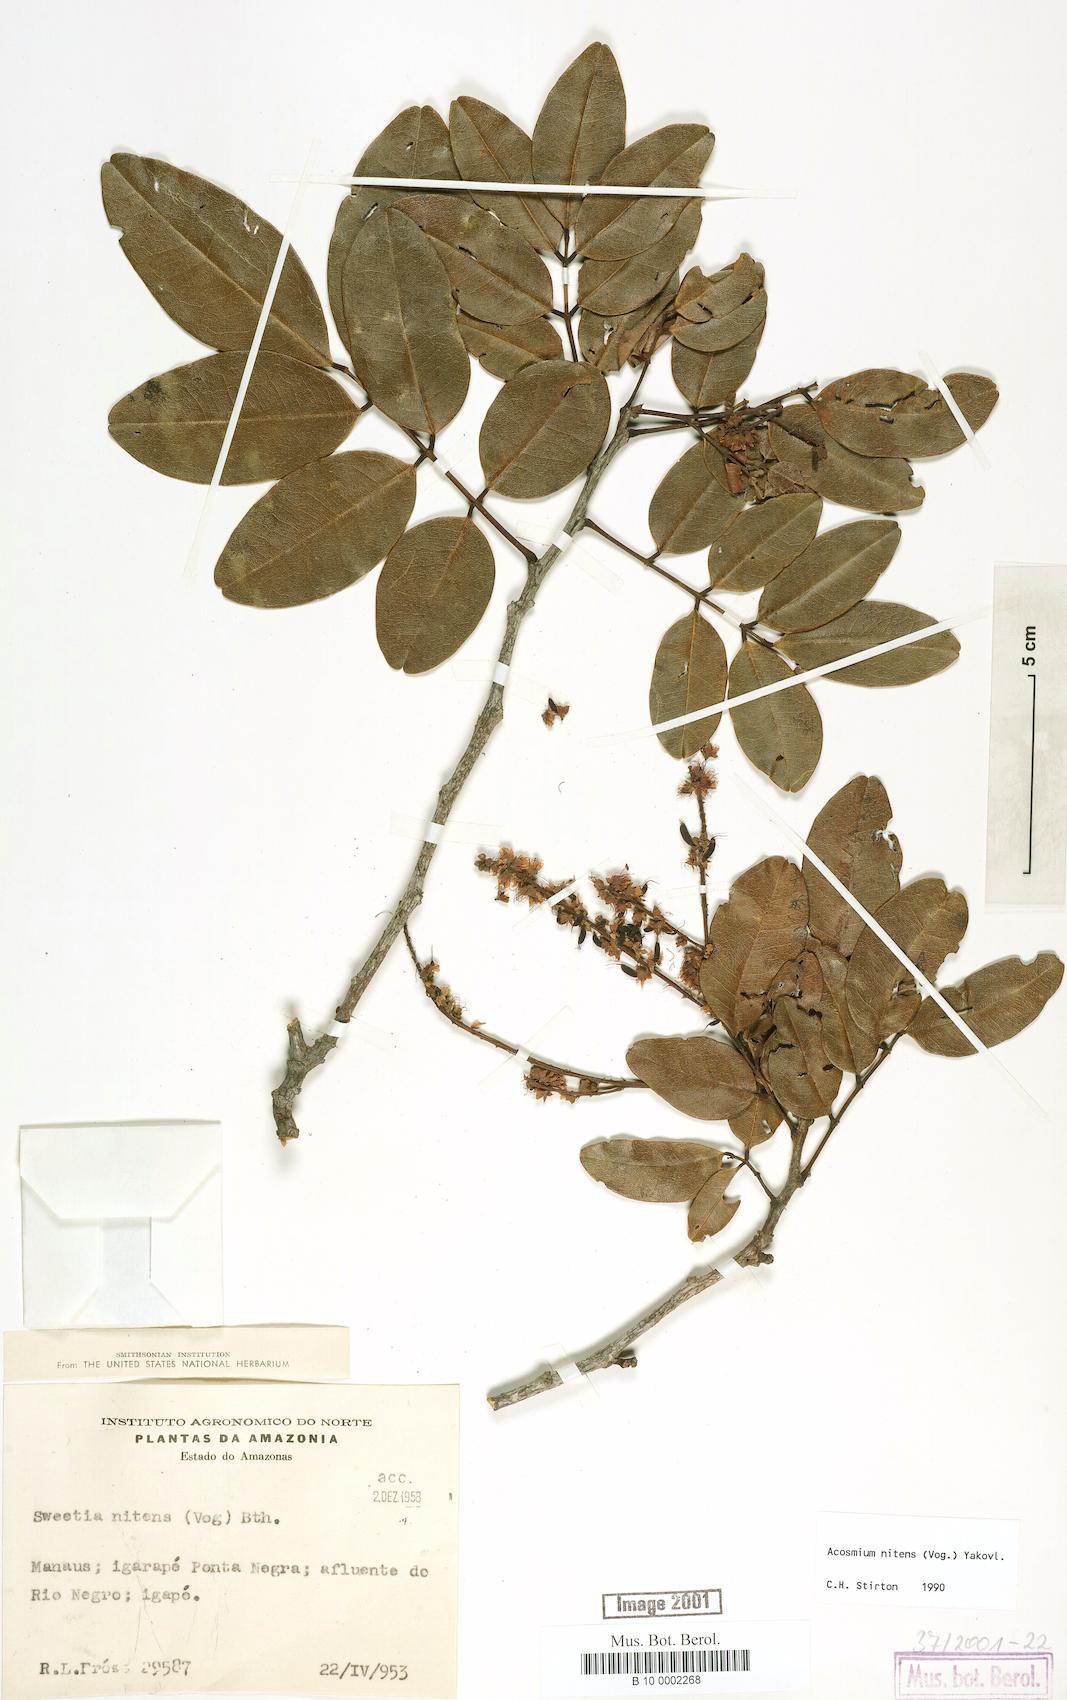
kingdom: Plantae
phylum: Tracheophyta
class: Magnoliopsida
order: Fabales
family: Fabaceae
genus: Leptolobium
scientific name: Leptolobium nitens
